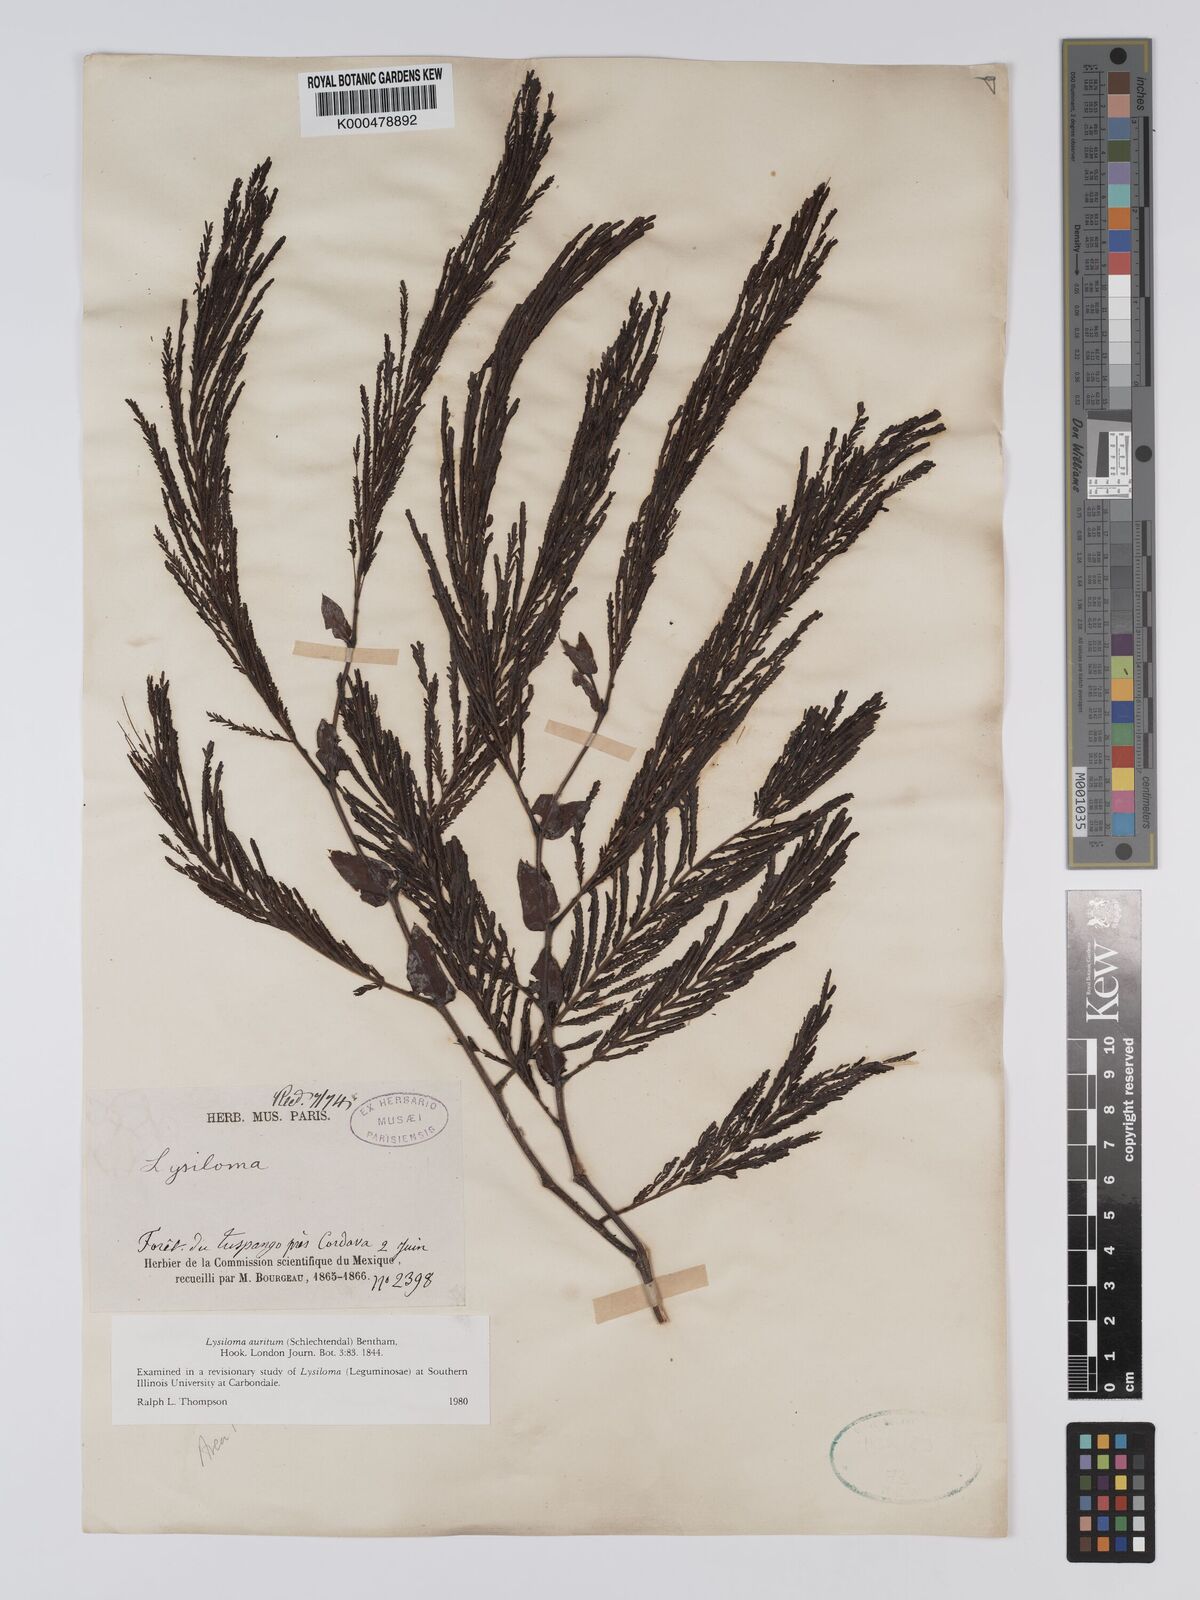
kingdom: Plantae
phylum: Tracheophyta
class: Magnoliopsida
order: Fabales
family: Fabaceae
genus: Lysiloma
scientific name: Lysiloma auritum
